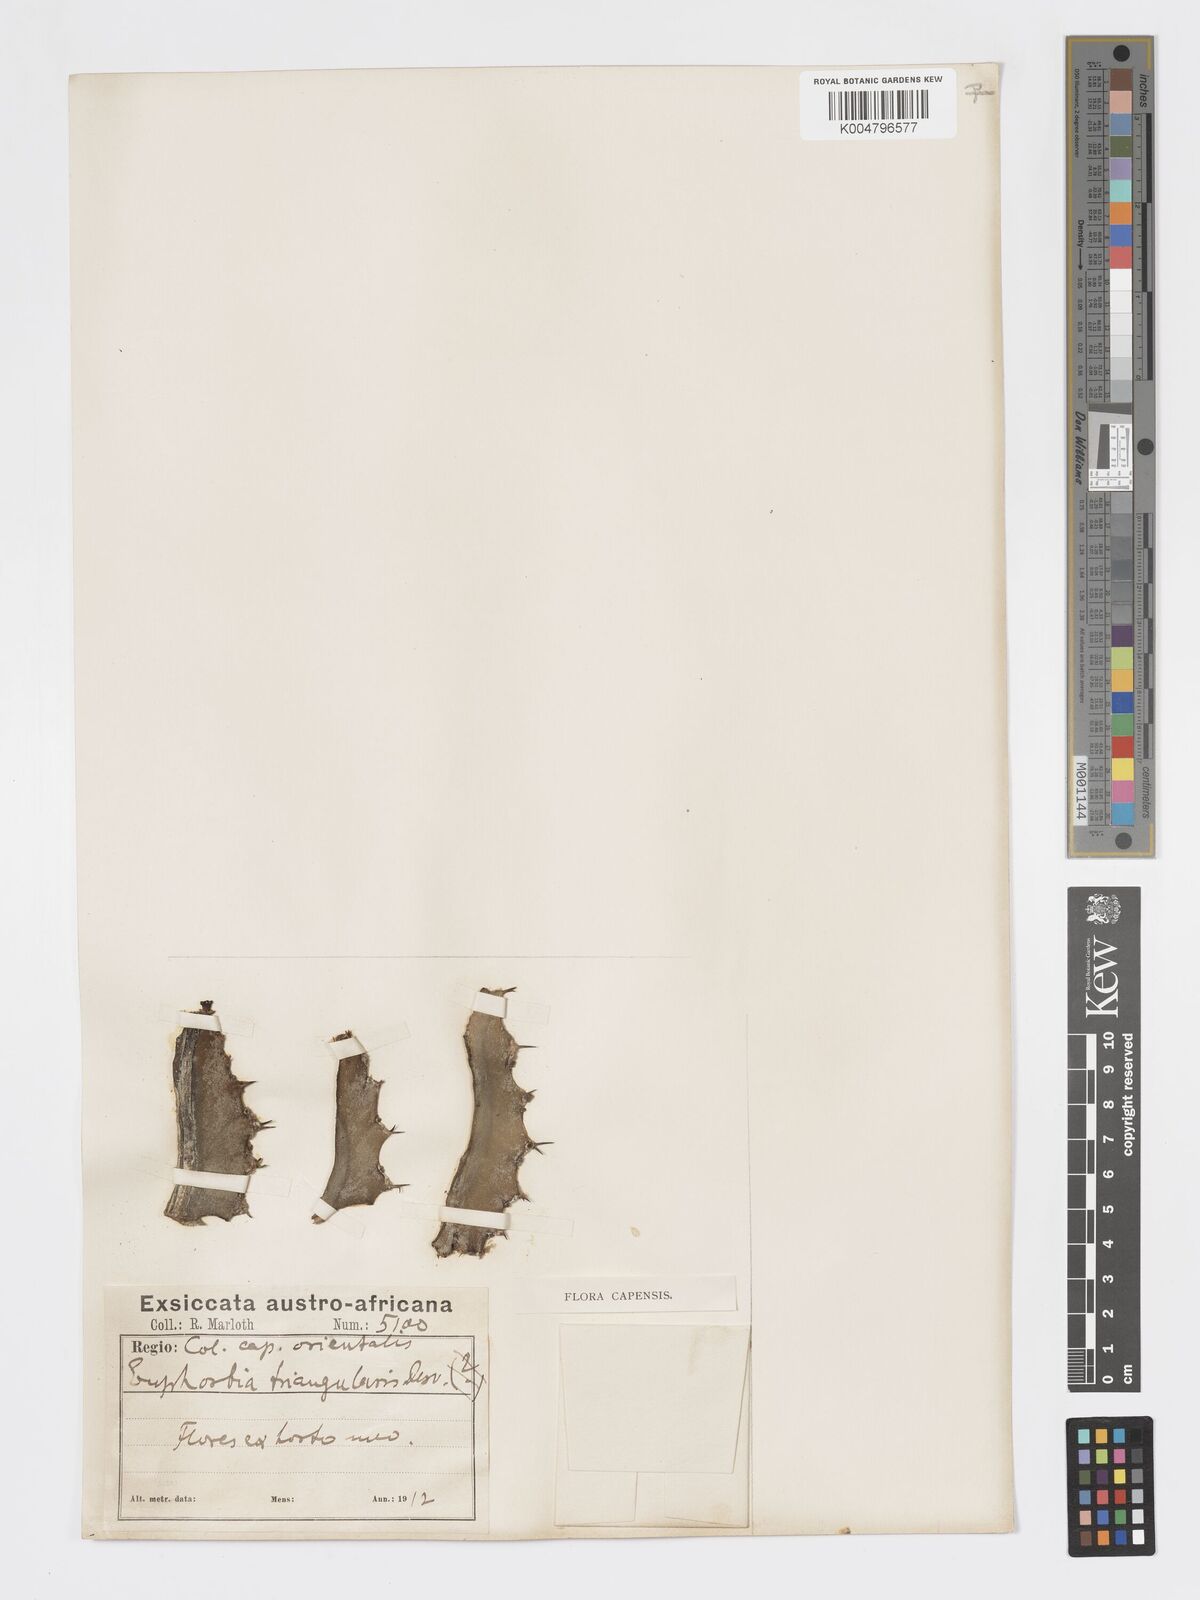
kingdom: Plantae
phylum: Tracheophyta
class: Magnoliopsida
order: Malpighiales
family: Euphorbiaceae
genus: Euphorbia
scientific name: Euphorbia triangularis
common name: Chandelier tree
